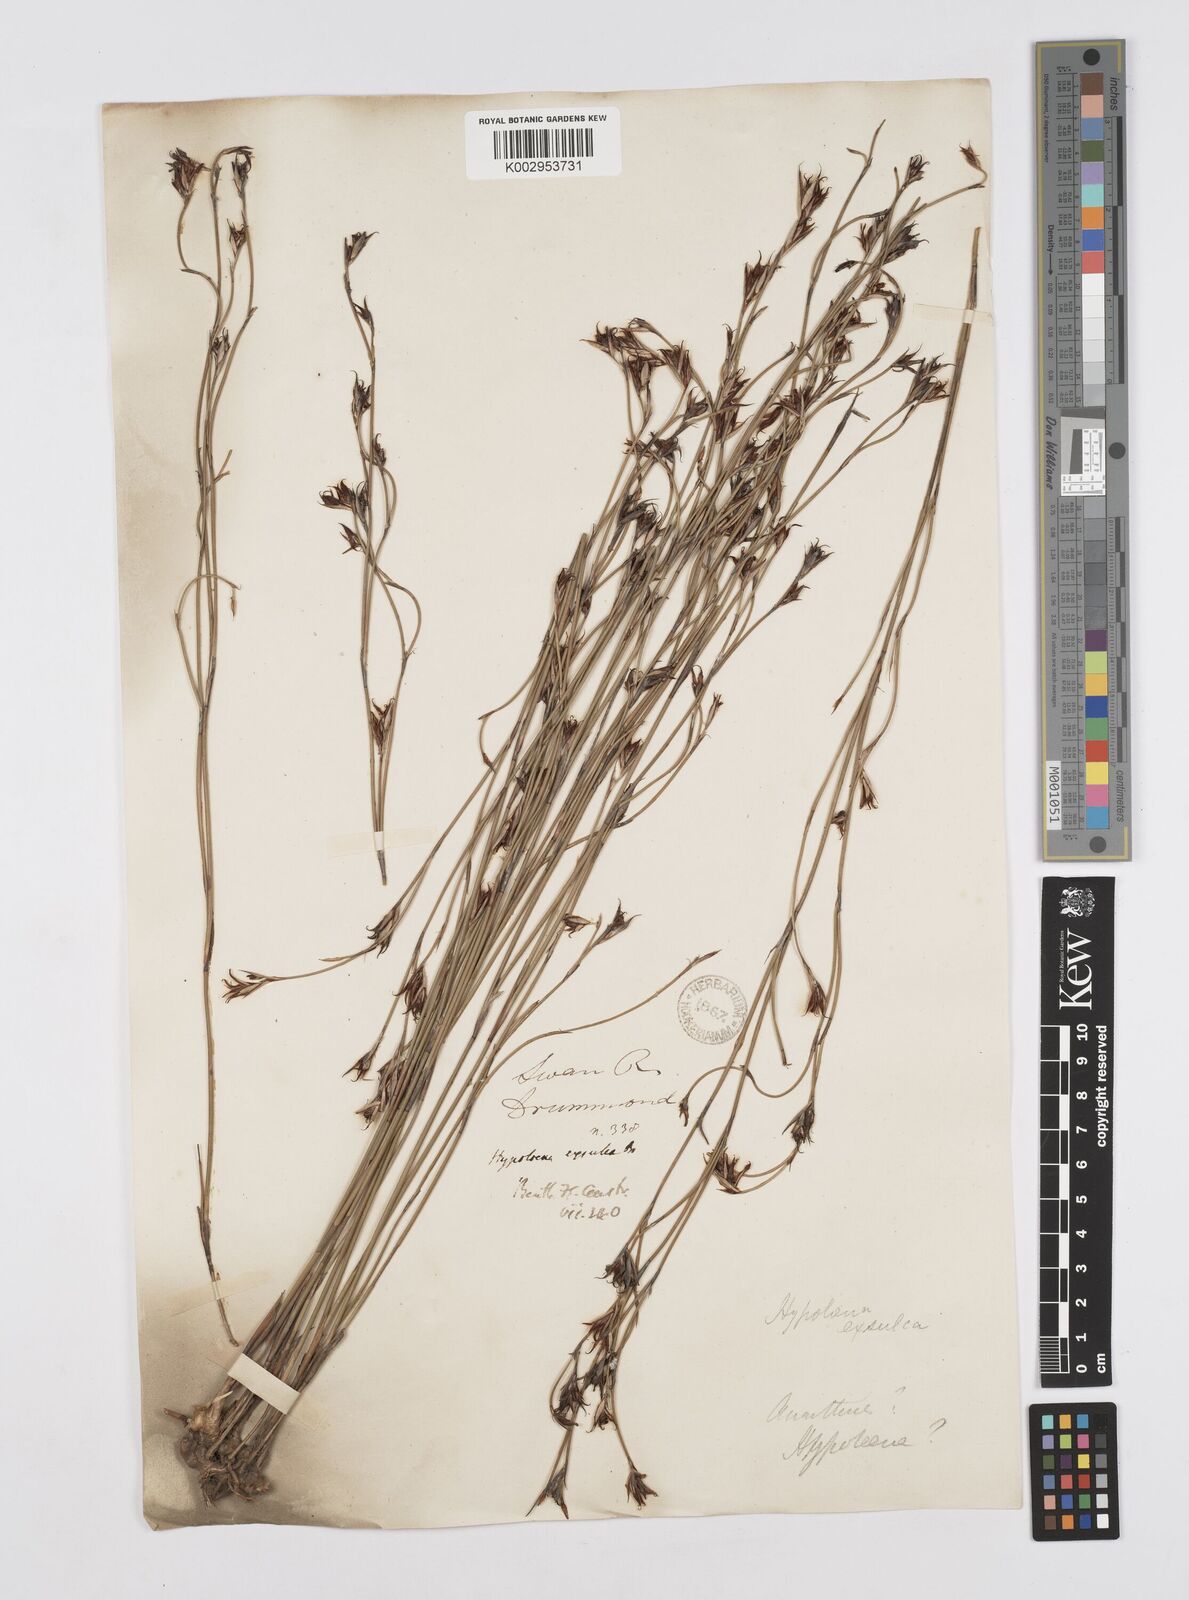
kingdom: Plantae
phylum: Tracheophyta
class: Liliopsida
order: Poales
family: Restionaceae
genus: Hypolaena
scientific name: Hypolaena exsulca
